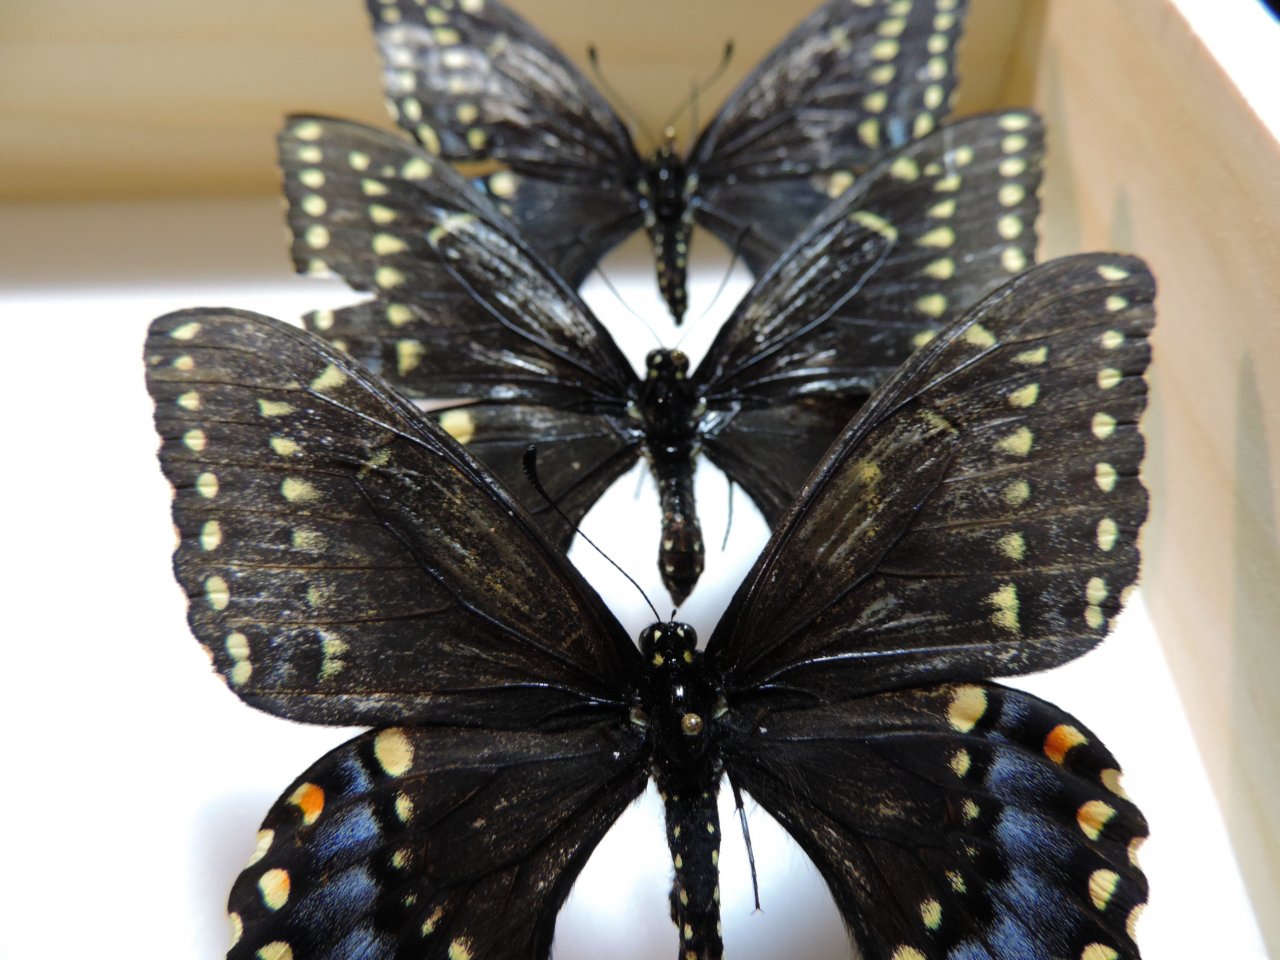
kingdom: Animalia
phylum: Arthropoda
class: Insecta
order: Lepidoptera
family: Papilionidae
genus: Papilio
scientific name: Papilio polyxenes
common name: Black Swallowtail
